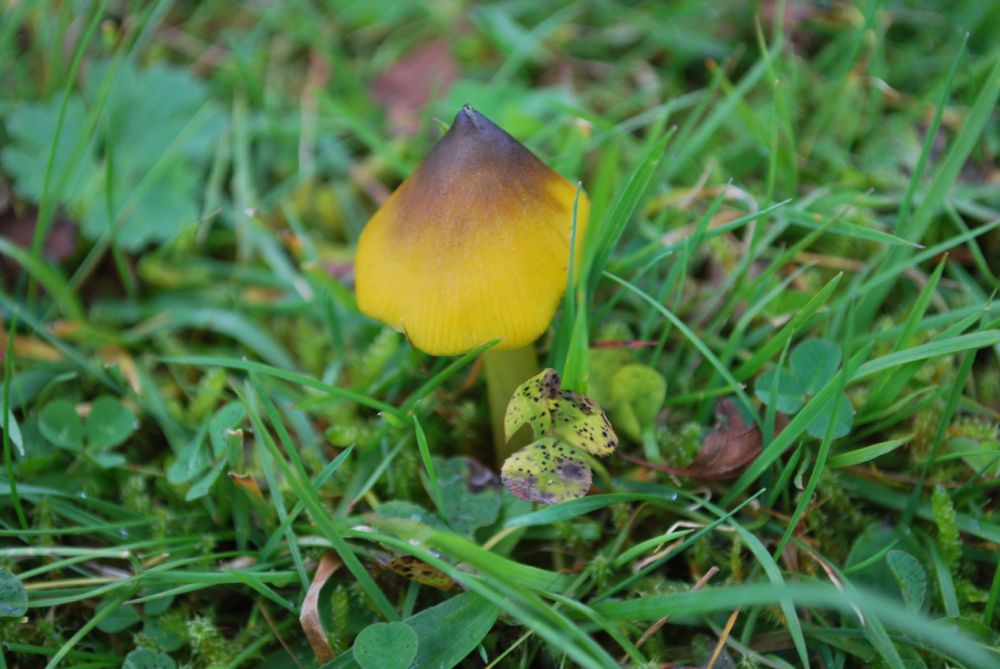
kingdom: Fungi
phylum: Basidiomycota
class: Agaricomycetes
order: Agaricales
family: Hygrophoraceae
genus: Hygrocybe
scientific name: Hygrocybe conica
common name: kegle-vokshat
